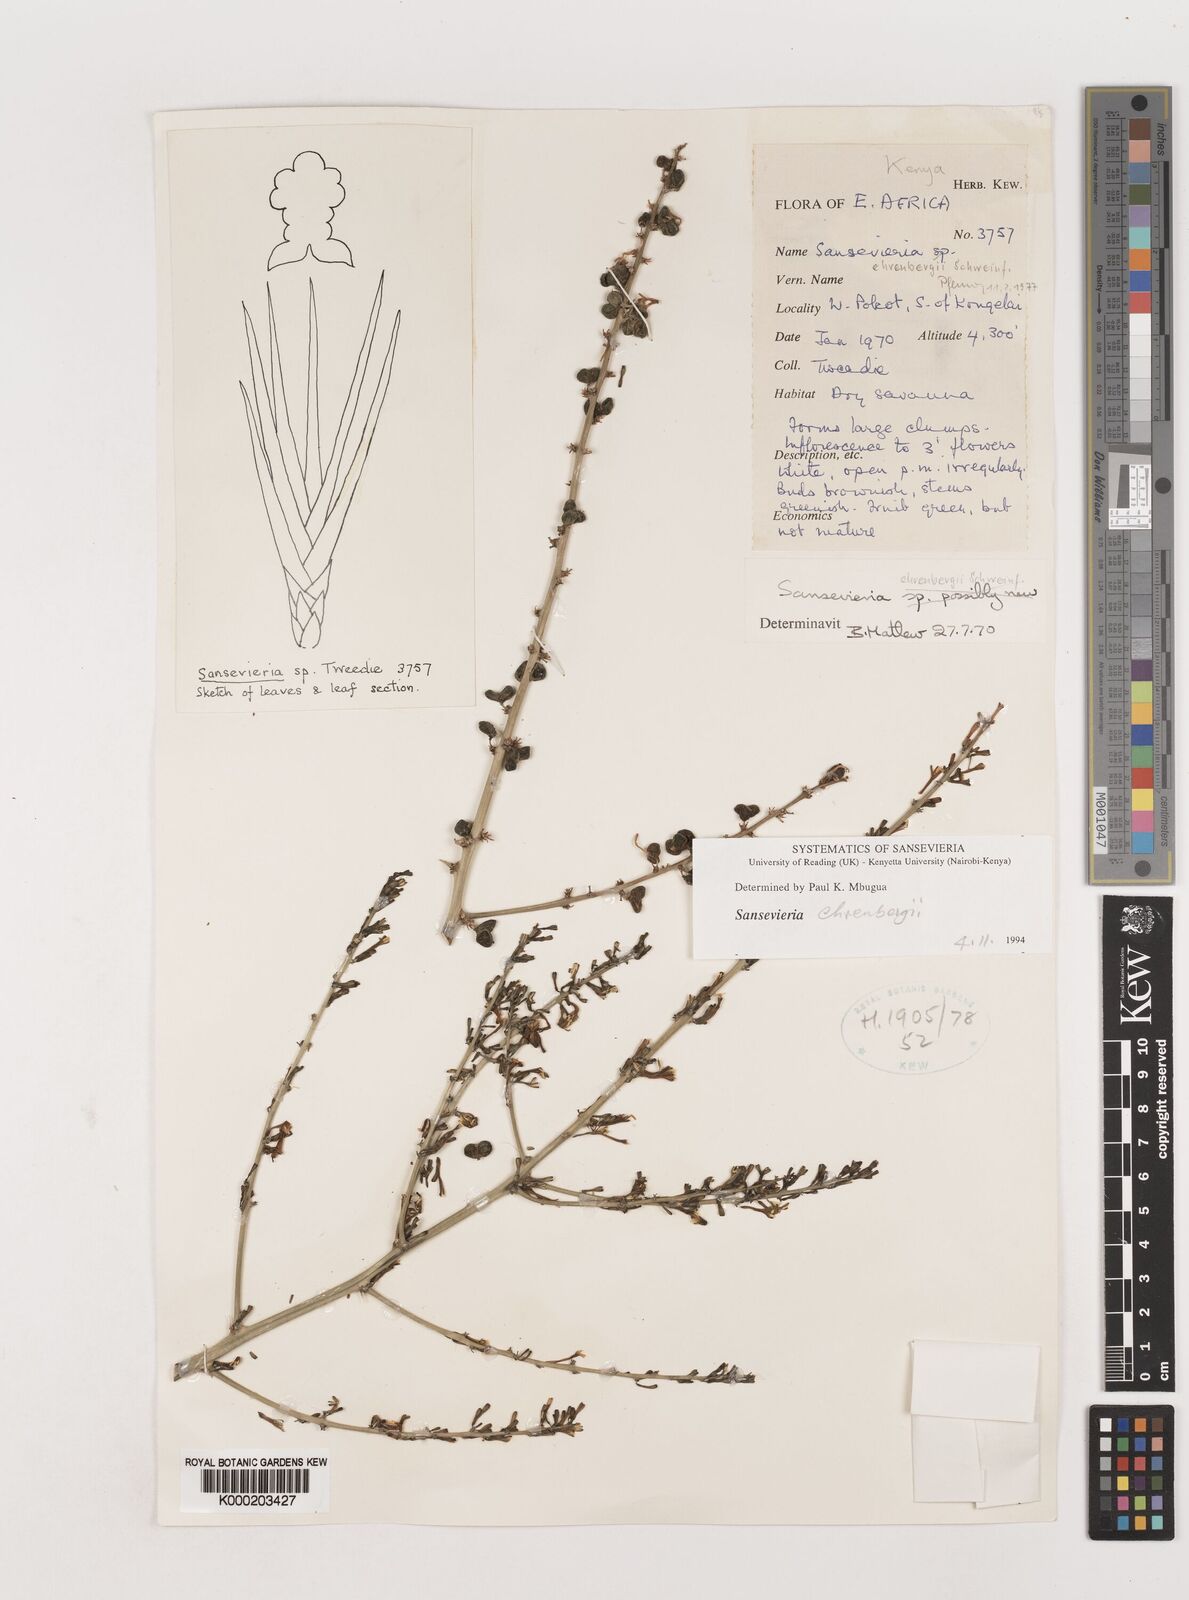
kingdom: Plantae
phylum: Tracheophyta
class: Liliopsida
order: Asparagales
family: Asparagaceae
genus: Dracaena
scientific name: Dracaena hanningtonii
